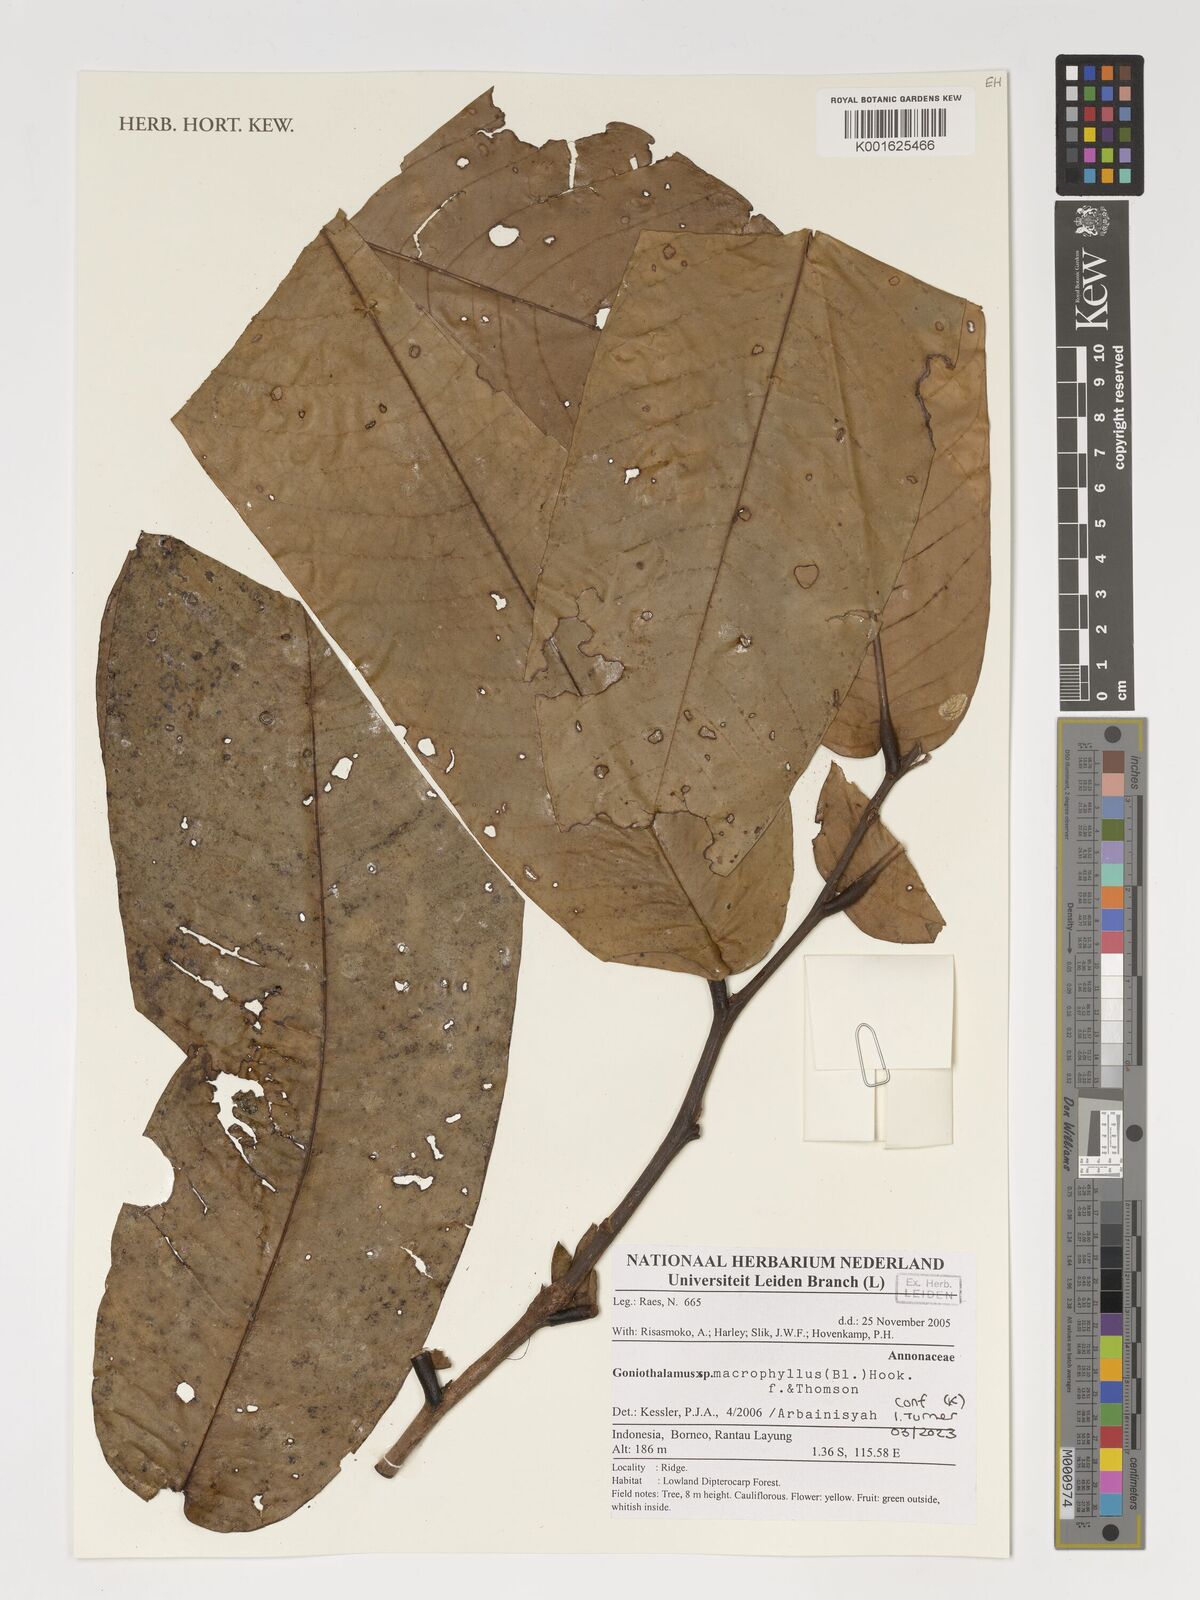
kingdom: Plantae
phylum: Tracheophyta
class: Magnoliopsida
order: Magnoliales
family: Annonaceae
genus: Goniothalamus
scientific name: Goniothalamus macrophyllus
